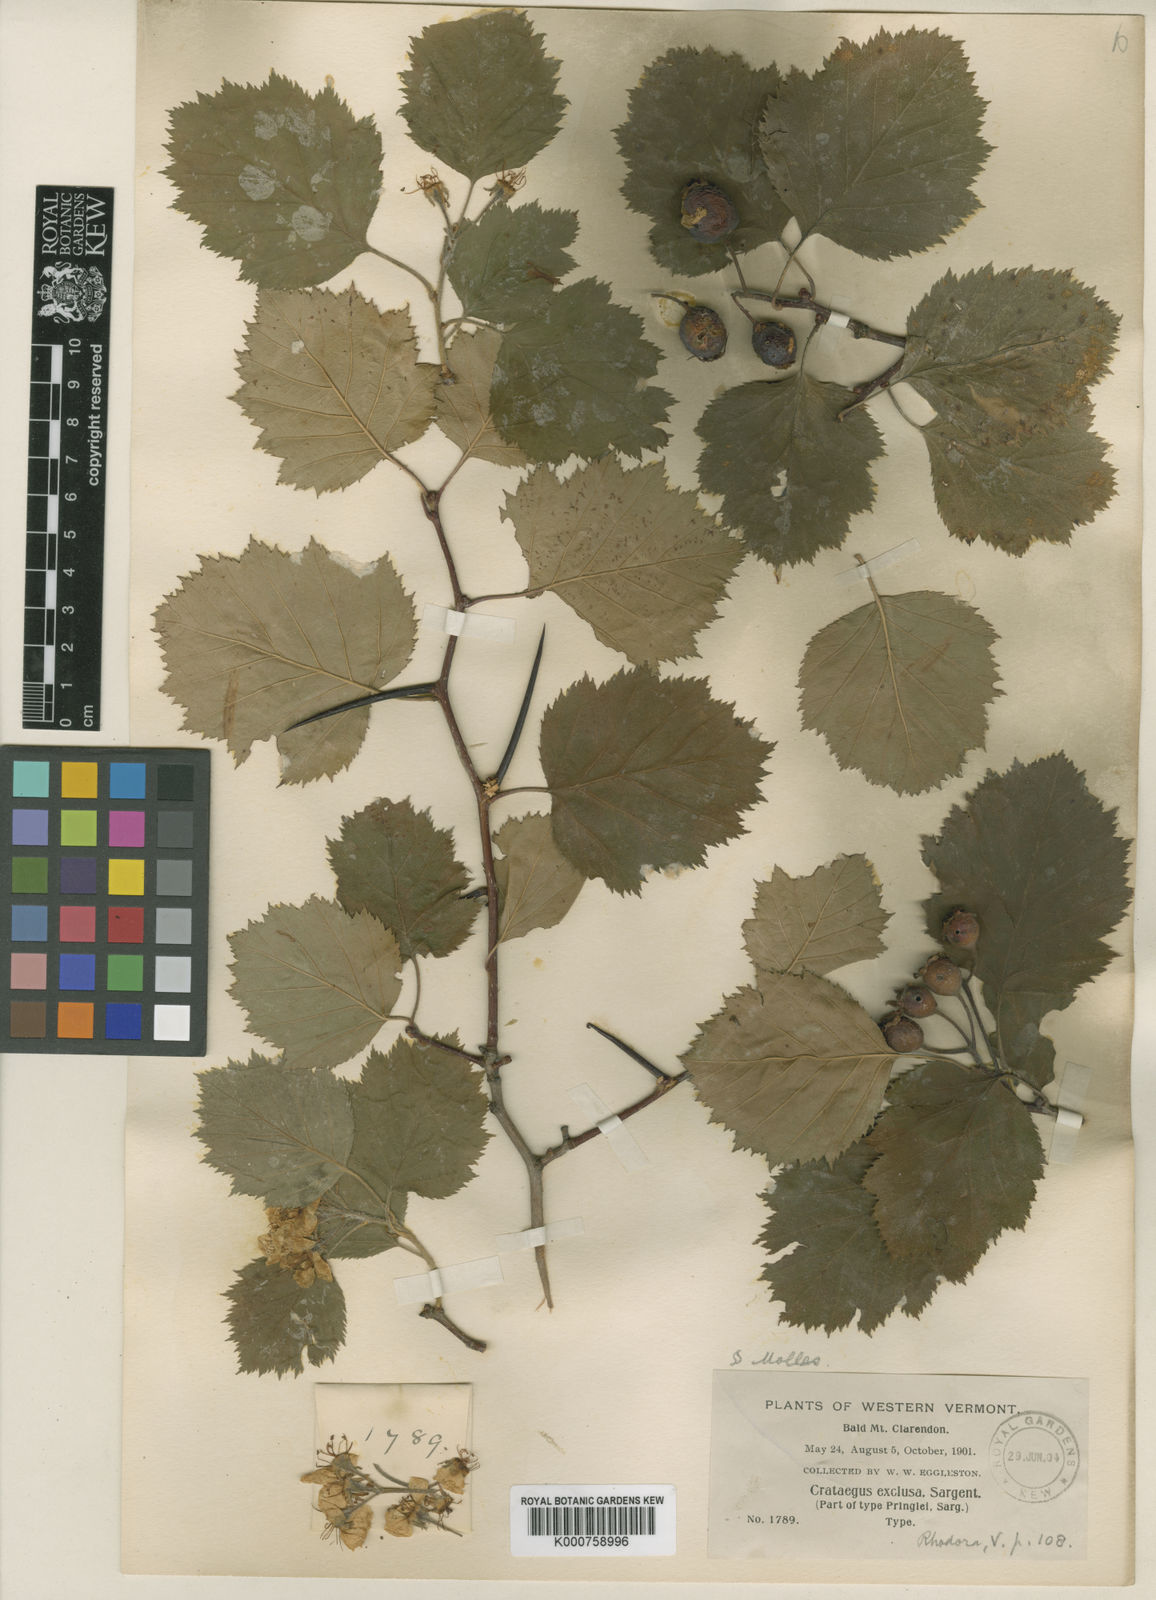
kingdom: Plantae
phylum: Tracheophyta
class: Magnoliopsida
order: Rosales
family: Rosaceae
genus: Crataegus
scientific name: Crataegus coccinea
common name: Scarlet hawthorn
